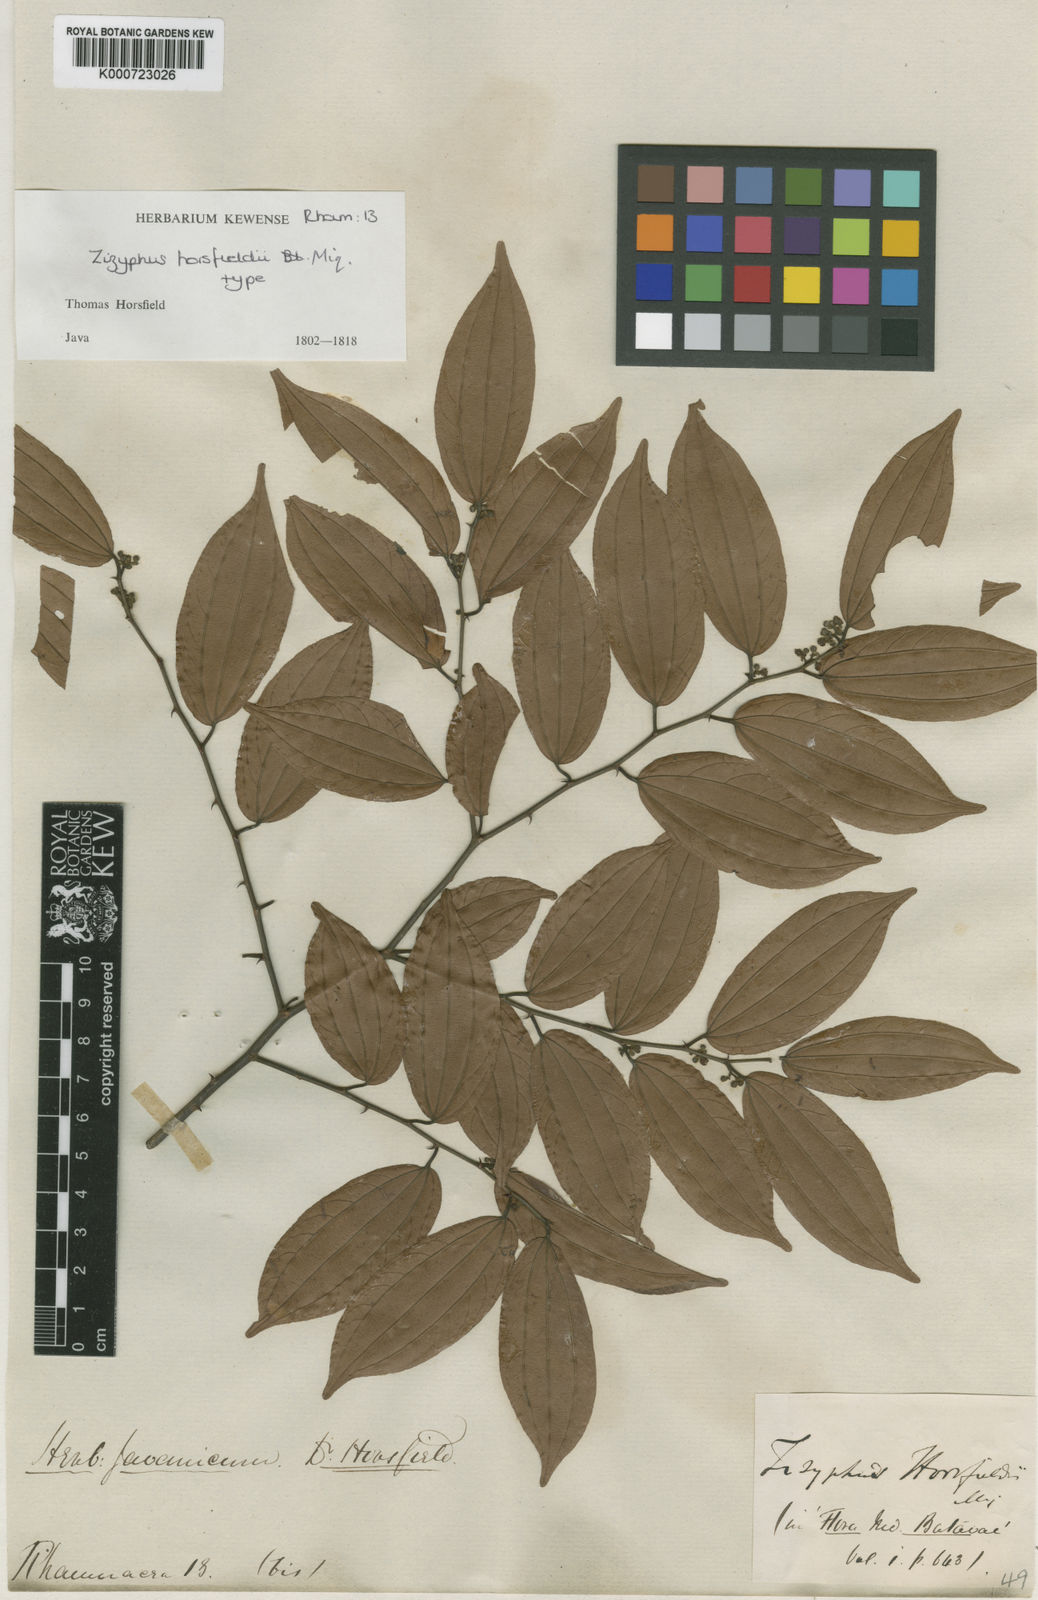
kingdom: Plantae
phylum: Tracheophyta
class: Magnoliopsida
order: Rosales
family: Rhamnaceae
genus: Ziziphus
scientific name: Ziziphus horsfieldii
